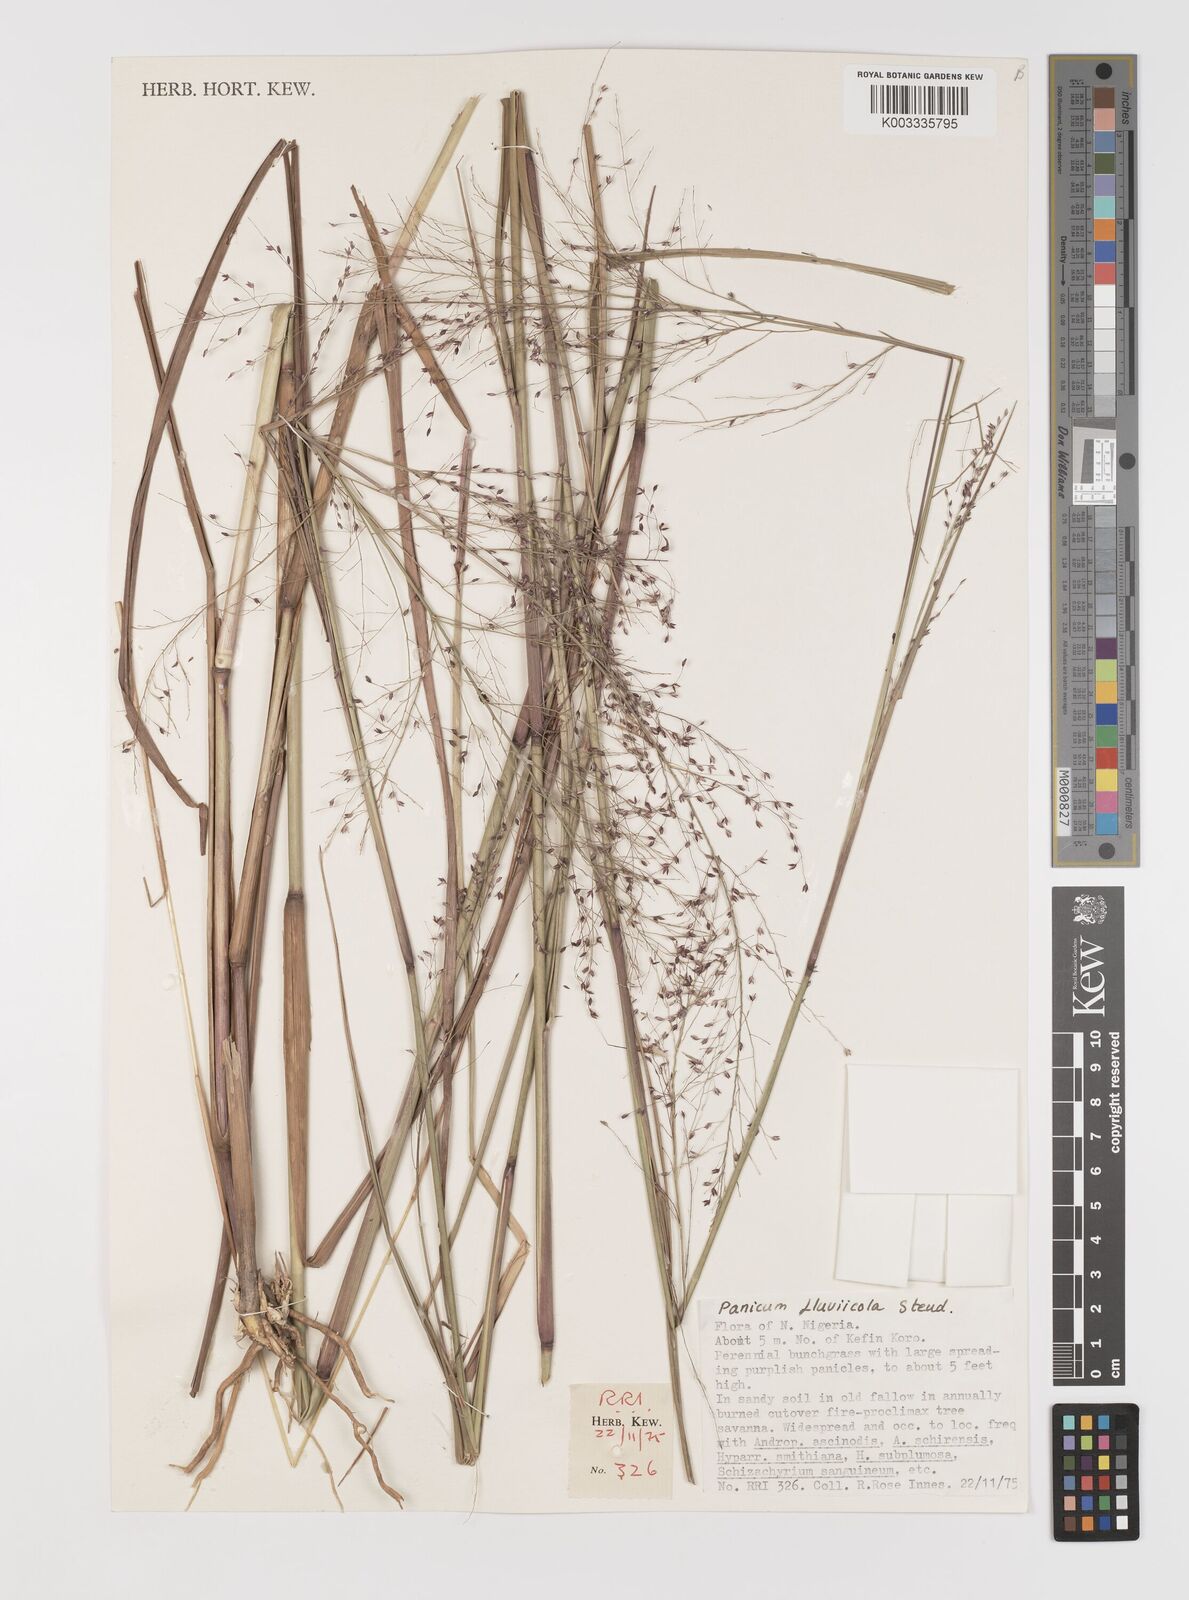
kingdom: Plantae
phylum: Tracheophyta
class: Liliopsida
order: Poales
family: Poaceae
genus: Panicum
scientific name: Panicum fluviicola
